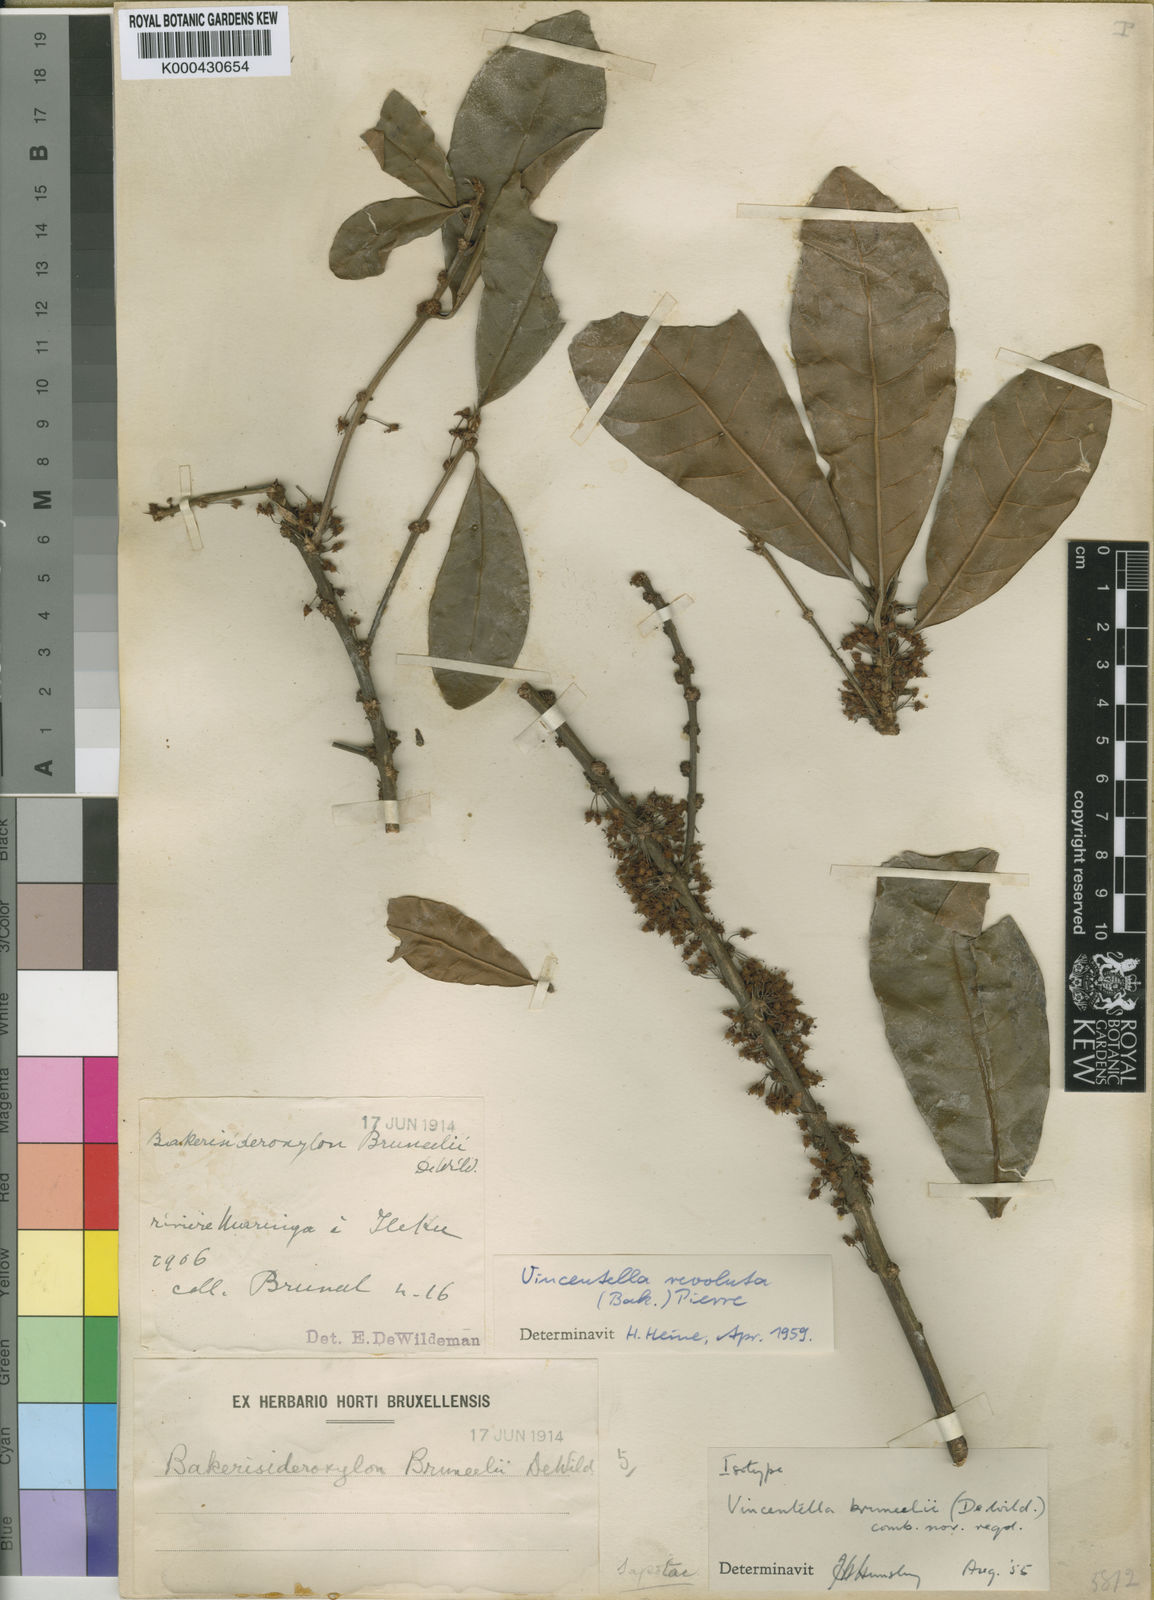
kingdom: Plantae
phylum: Tracheophyta
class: Magnoliopsida
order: Ericales
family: Sapotaceae
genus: Synsepalum
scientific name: Synsepalum revolutum
